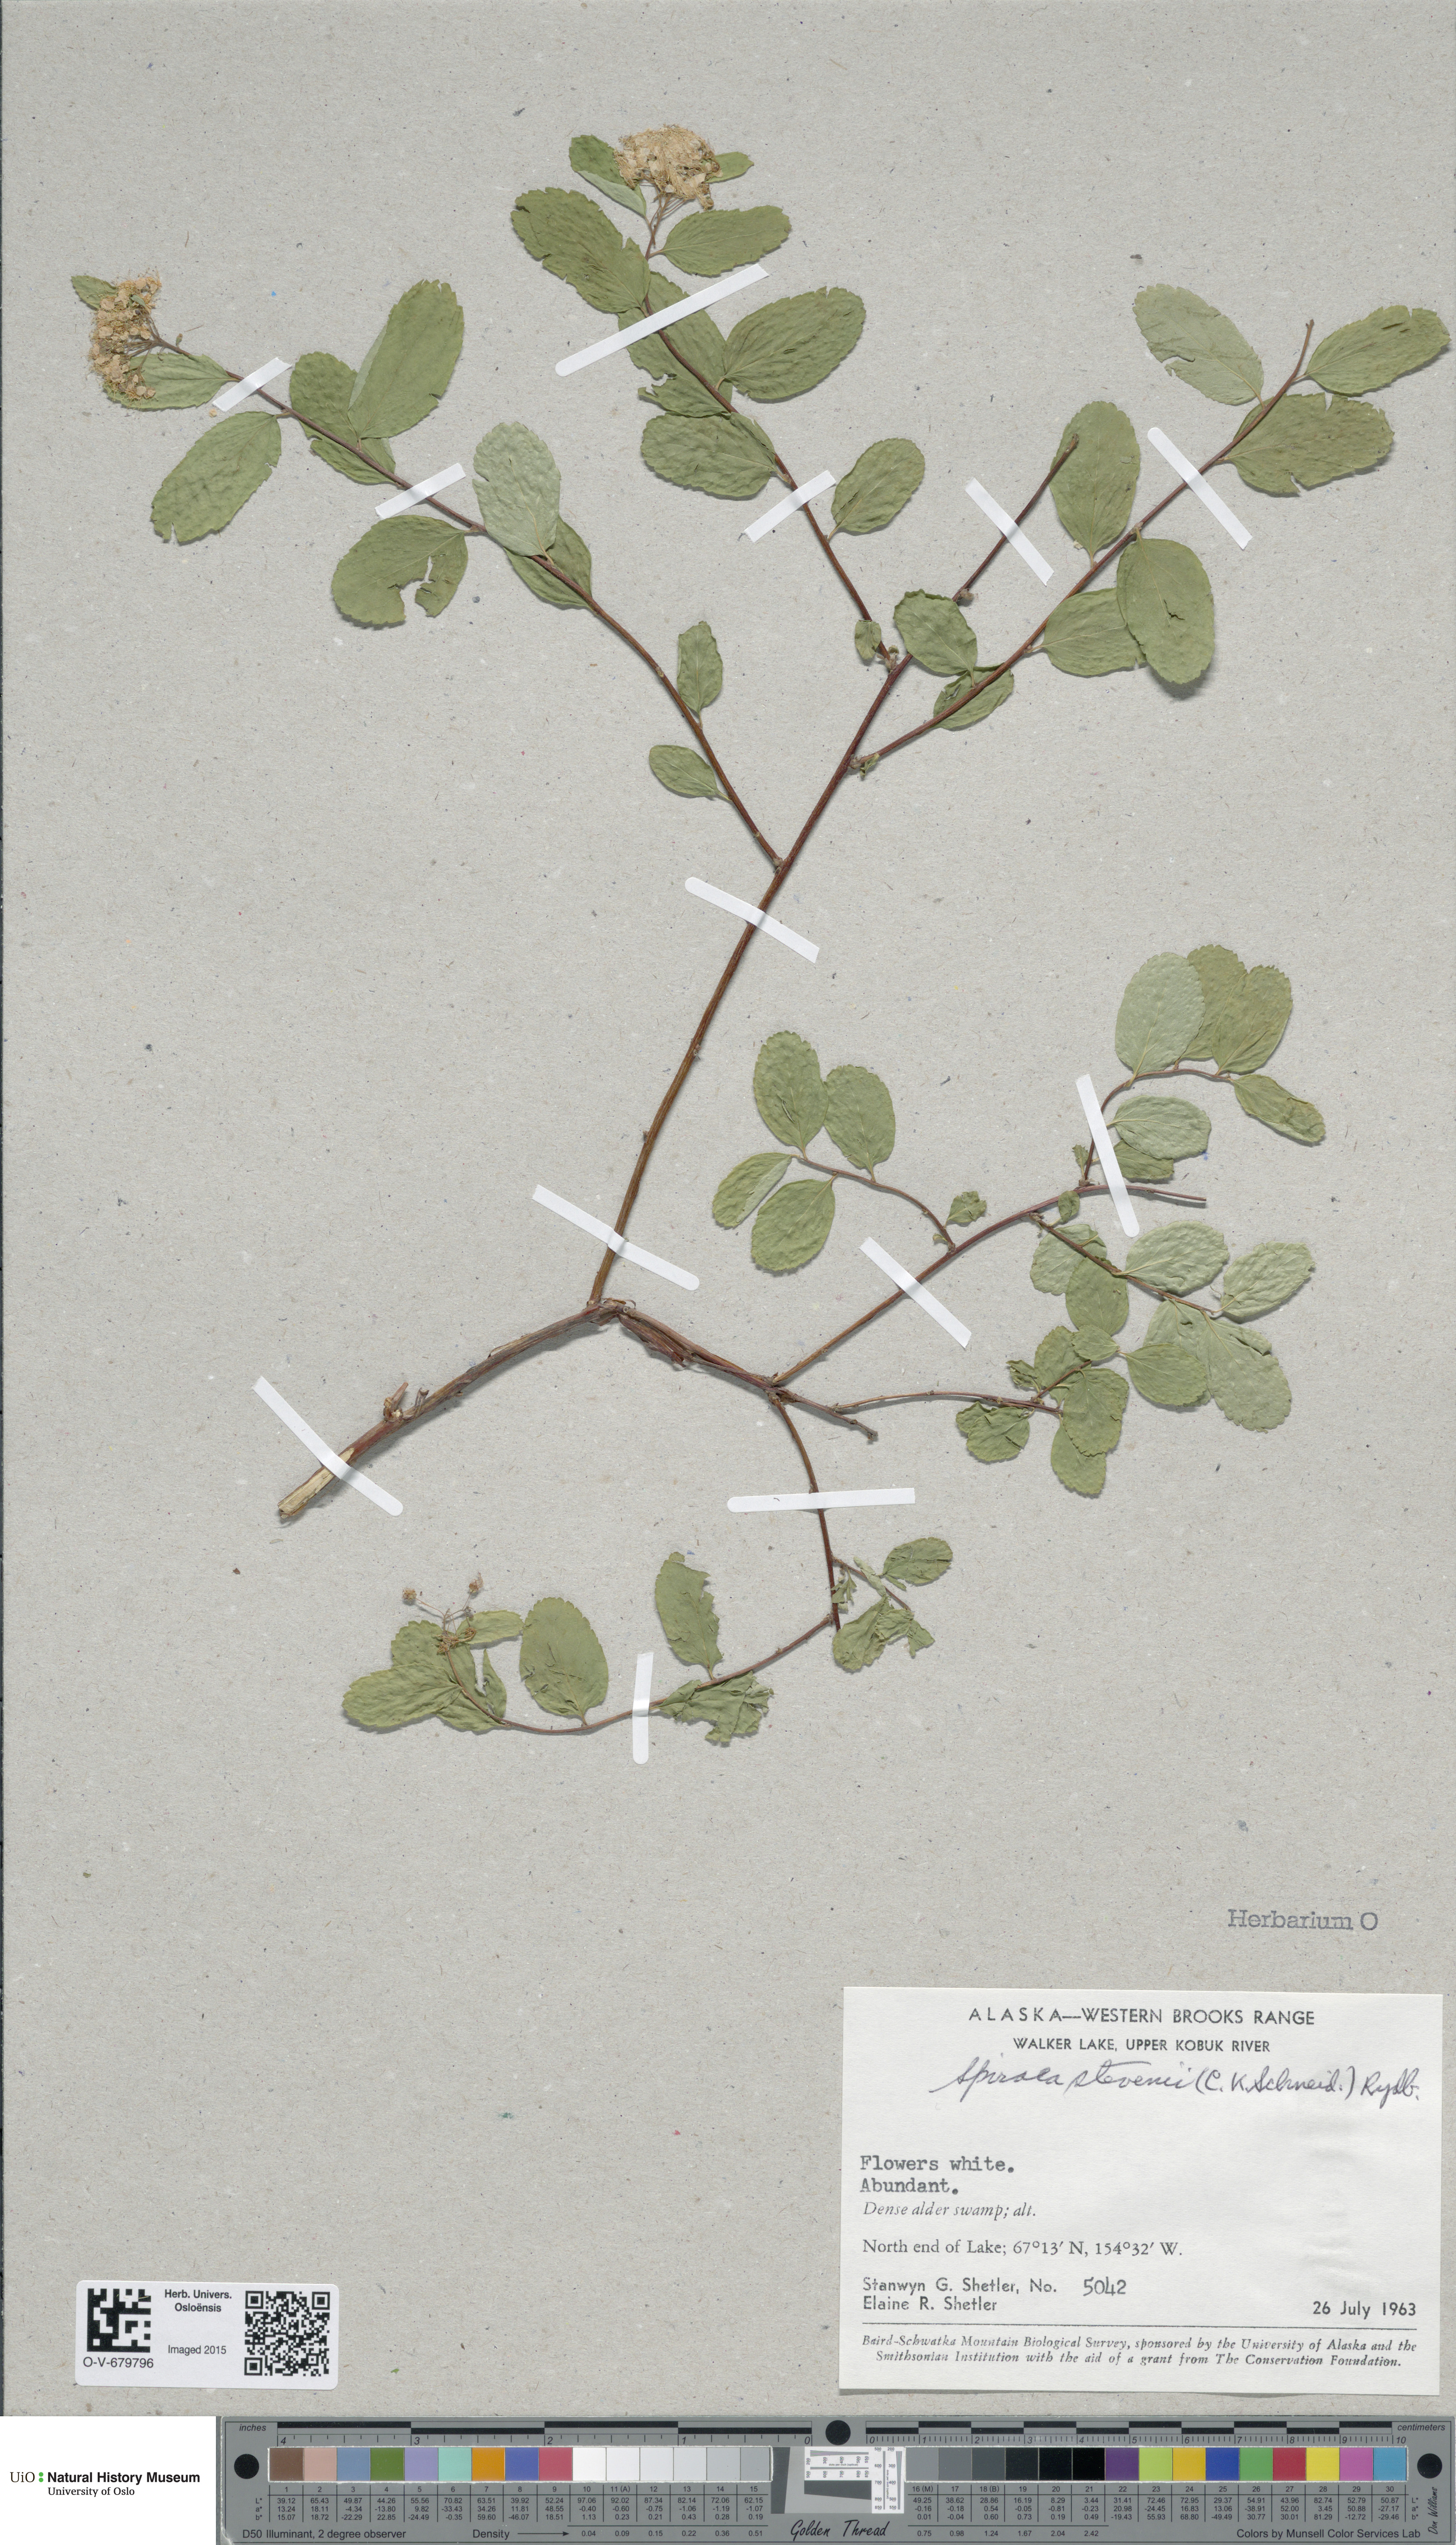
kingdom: Plantae
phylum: Tracheophyta
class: Magnoliopsida
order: Rosales
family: Rosaceae
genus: Spiraea
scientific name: Spiraea betulifolia
